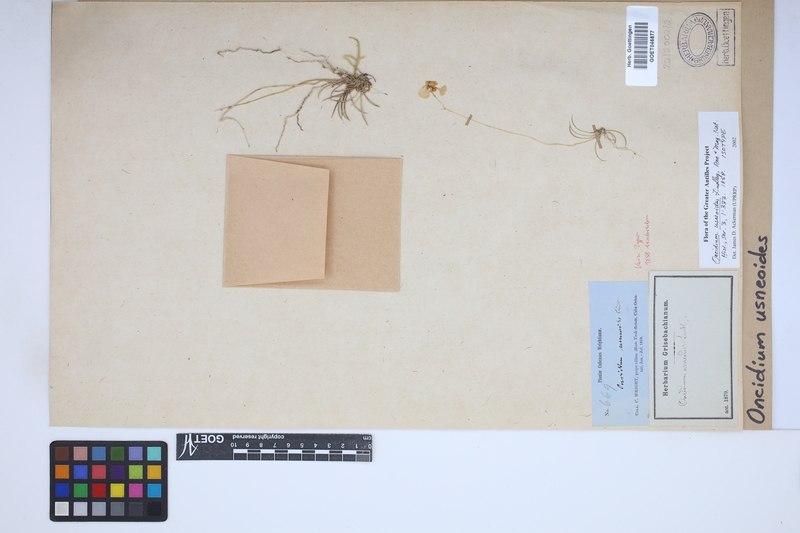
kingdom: Plantae
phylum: Tracheophyta
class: Liliopsida
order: Asparagales
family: Orchidaceae
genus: Tolumnia
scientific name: Tolumnia usneoides
